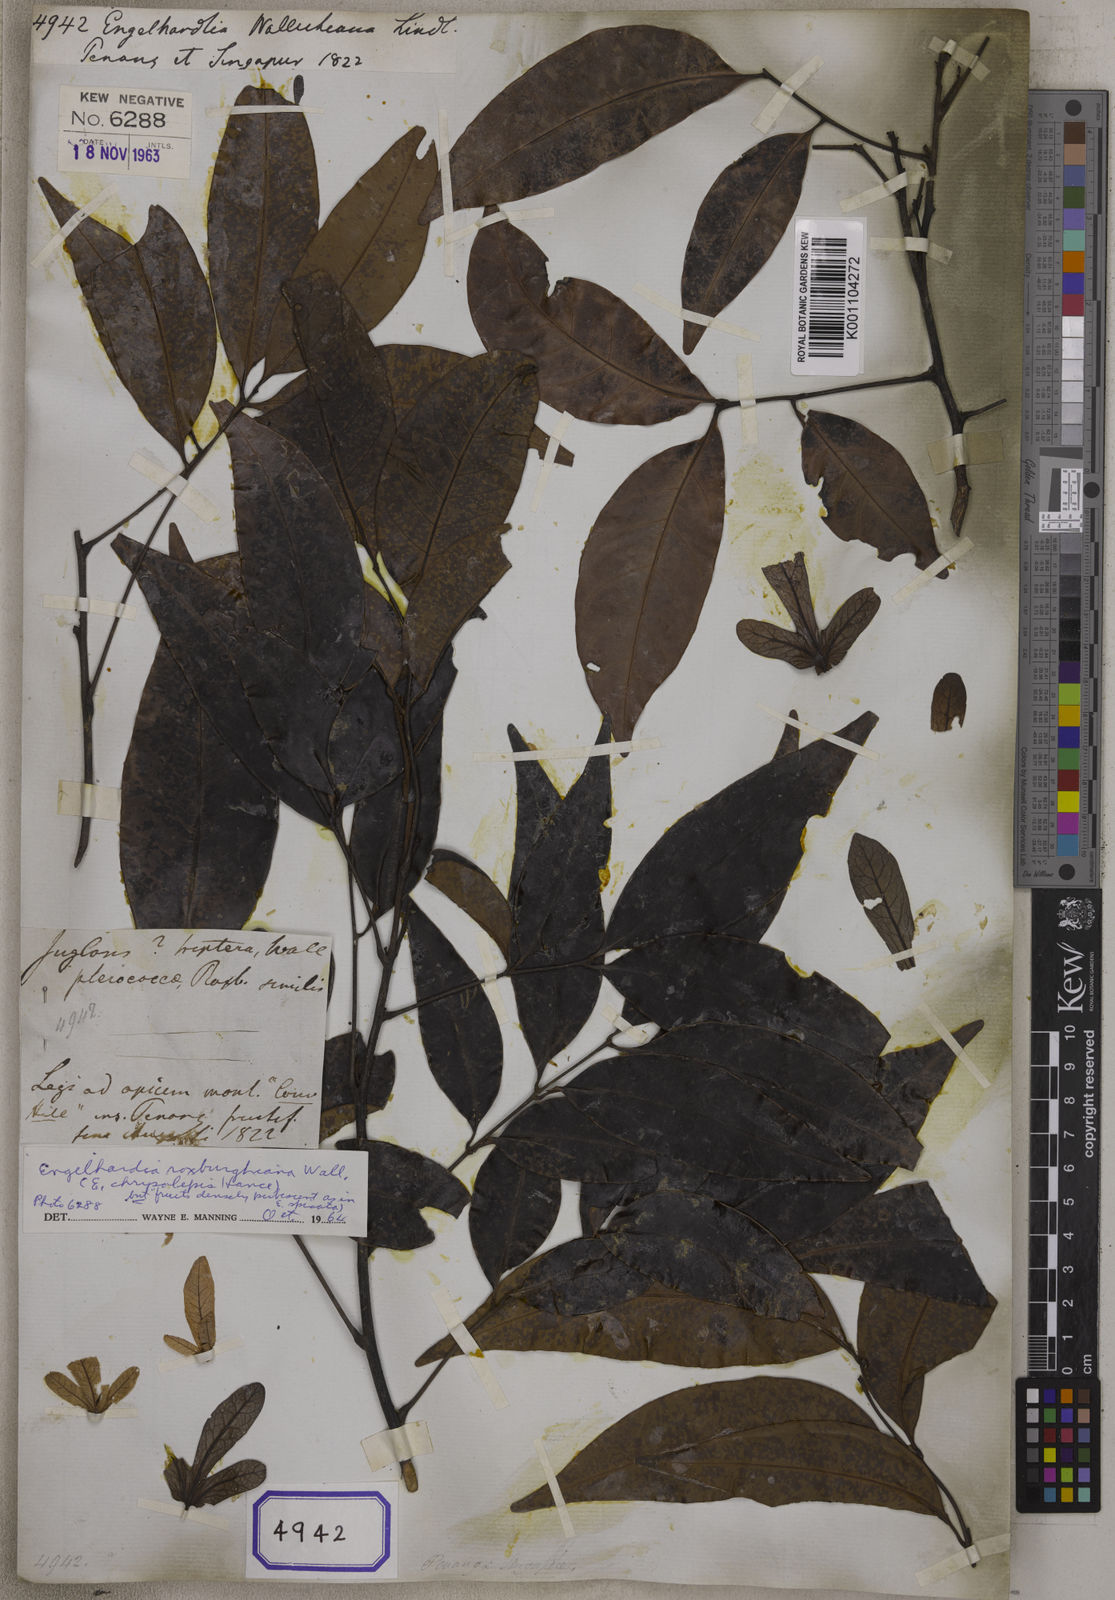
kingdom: Plantae
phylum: Tracheophyta
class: Magnoliopsida
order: Fagales
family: Juglandaceae
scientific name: Juglandaceae
